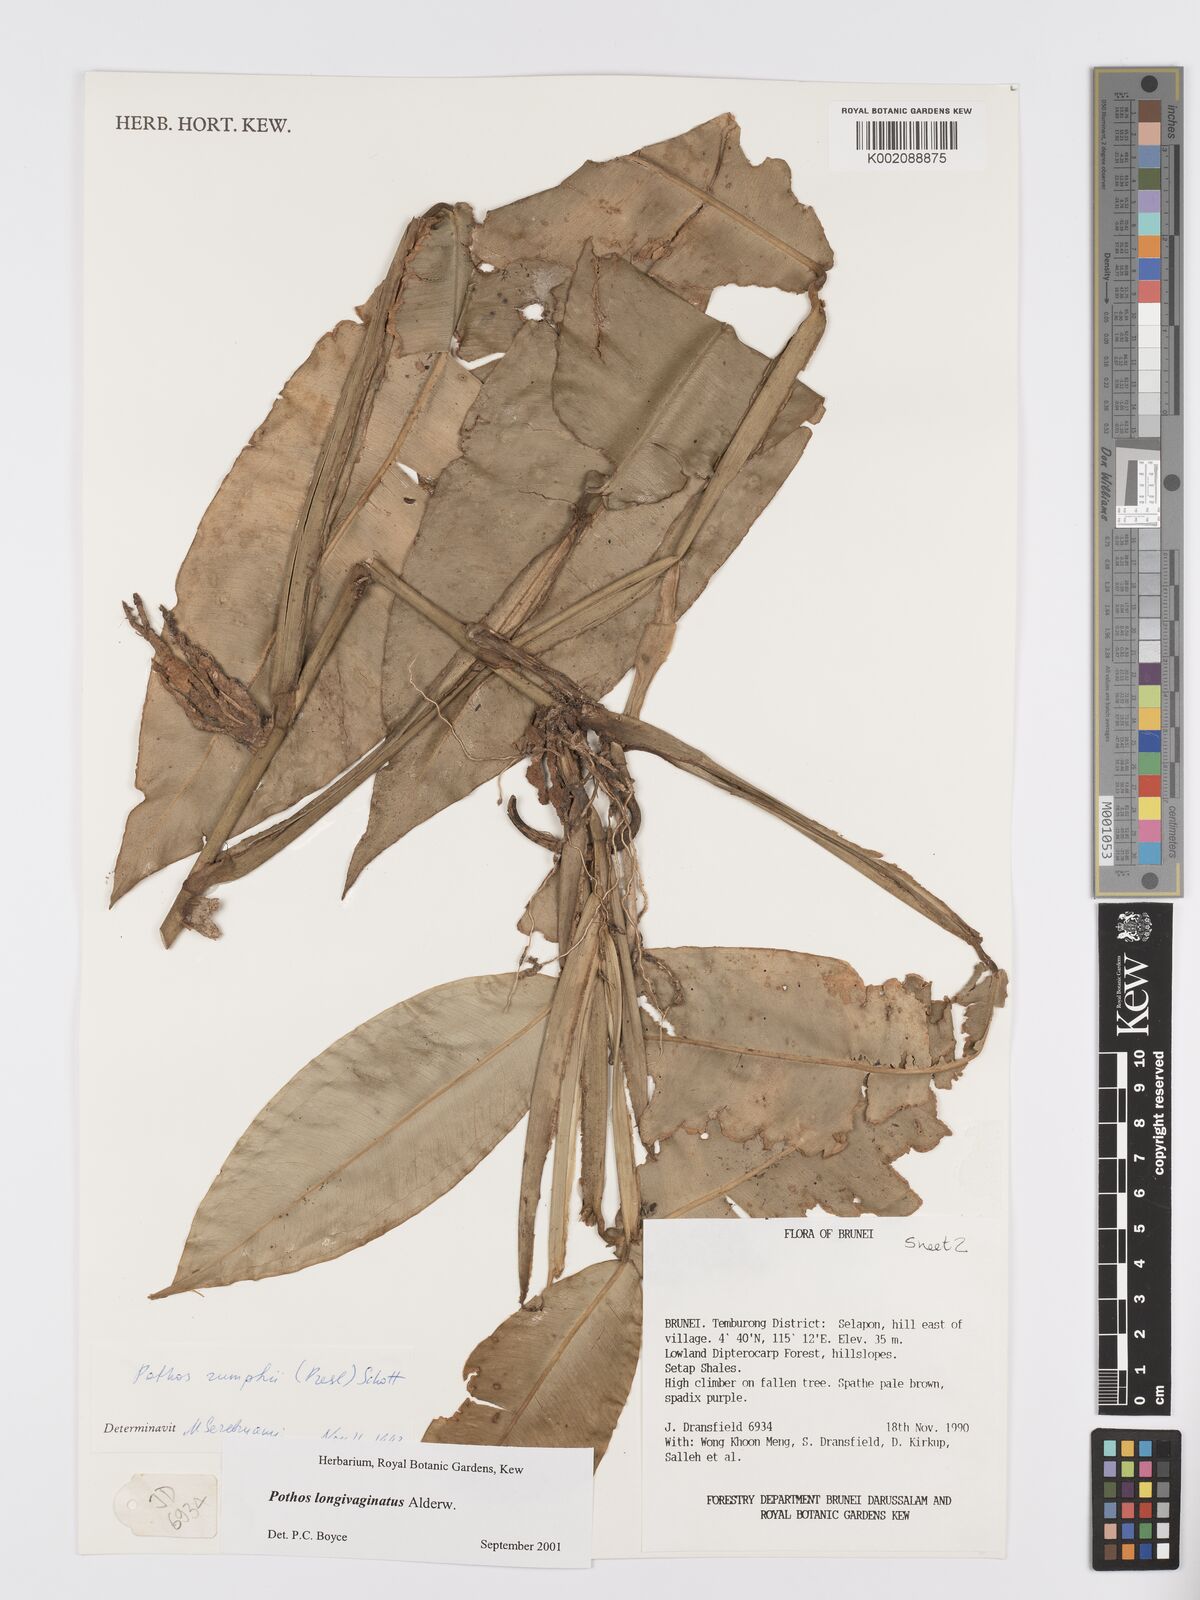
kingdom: Plantae
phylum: Tracheophyta
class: Liliopsida
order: Alismatales
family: Araceae
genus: Pothos
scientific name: Pothos longivaginatus
